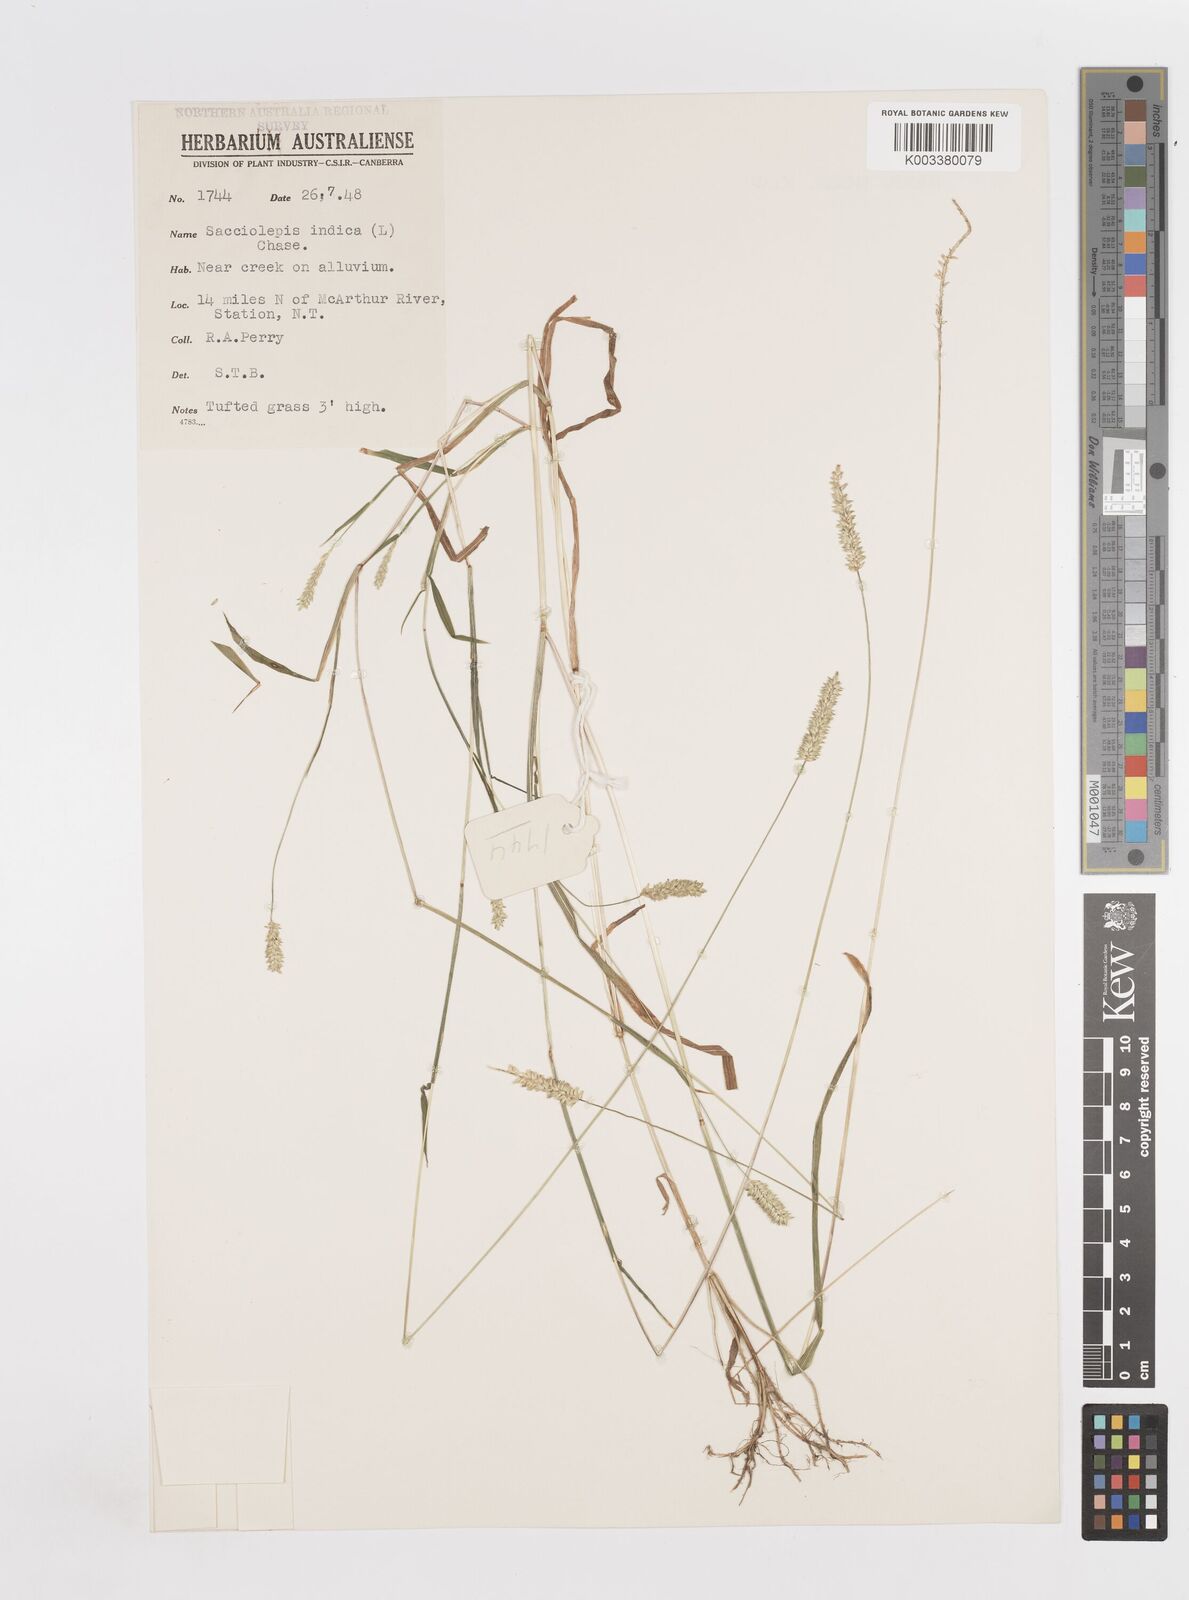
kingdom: Plantae
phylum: Tracheophyta
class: Liliopsida
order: Poales
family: Poaceae
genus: Sacciolepis
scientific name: Sacciolepis indica
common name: Glenwoodgrass
